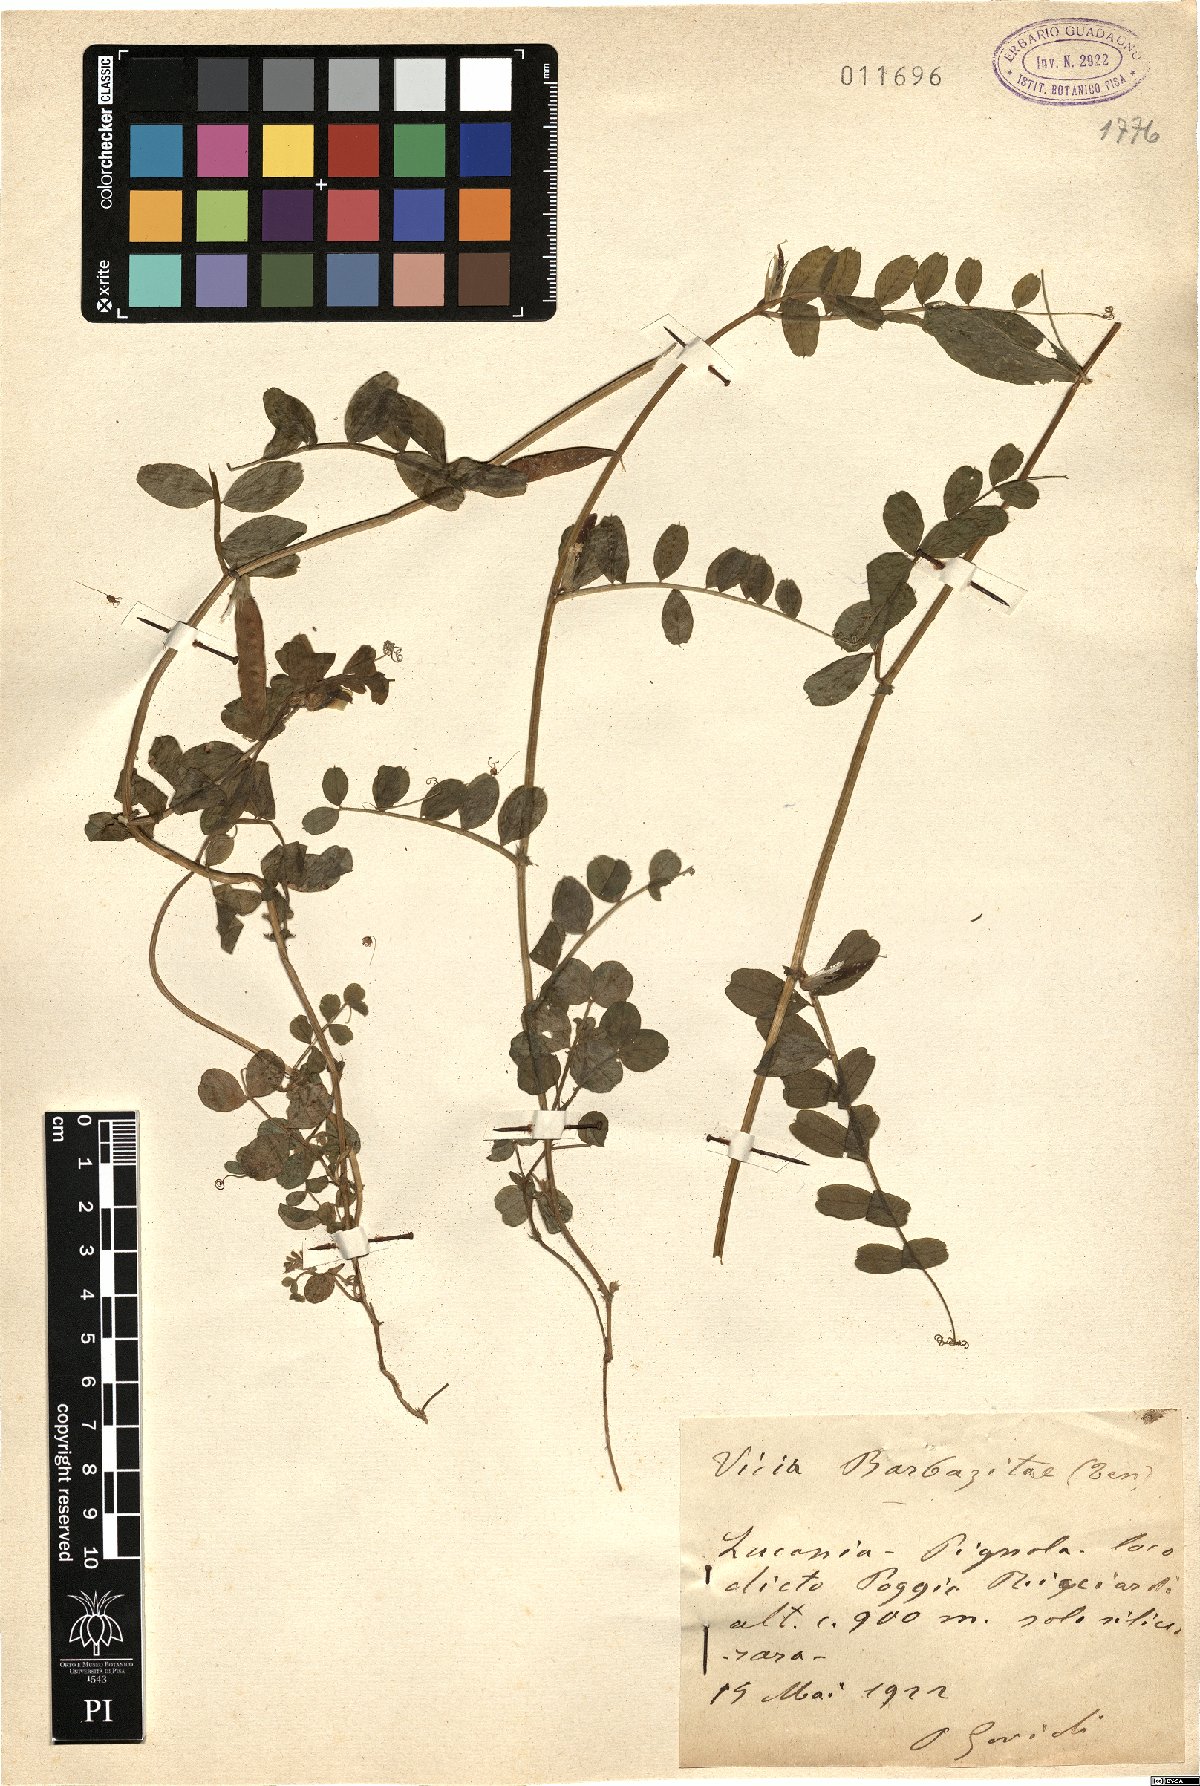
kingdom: Plantae
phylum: Tracheophyta
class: Magnoliopsida
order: Fabales
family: Fabaceae
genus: Vicia
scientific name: Vicia laeta
